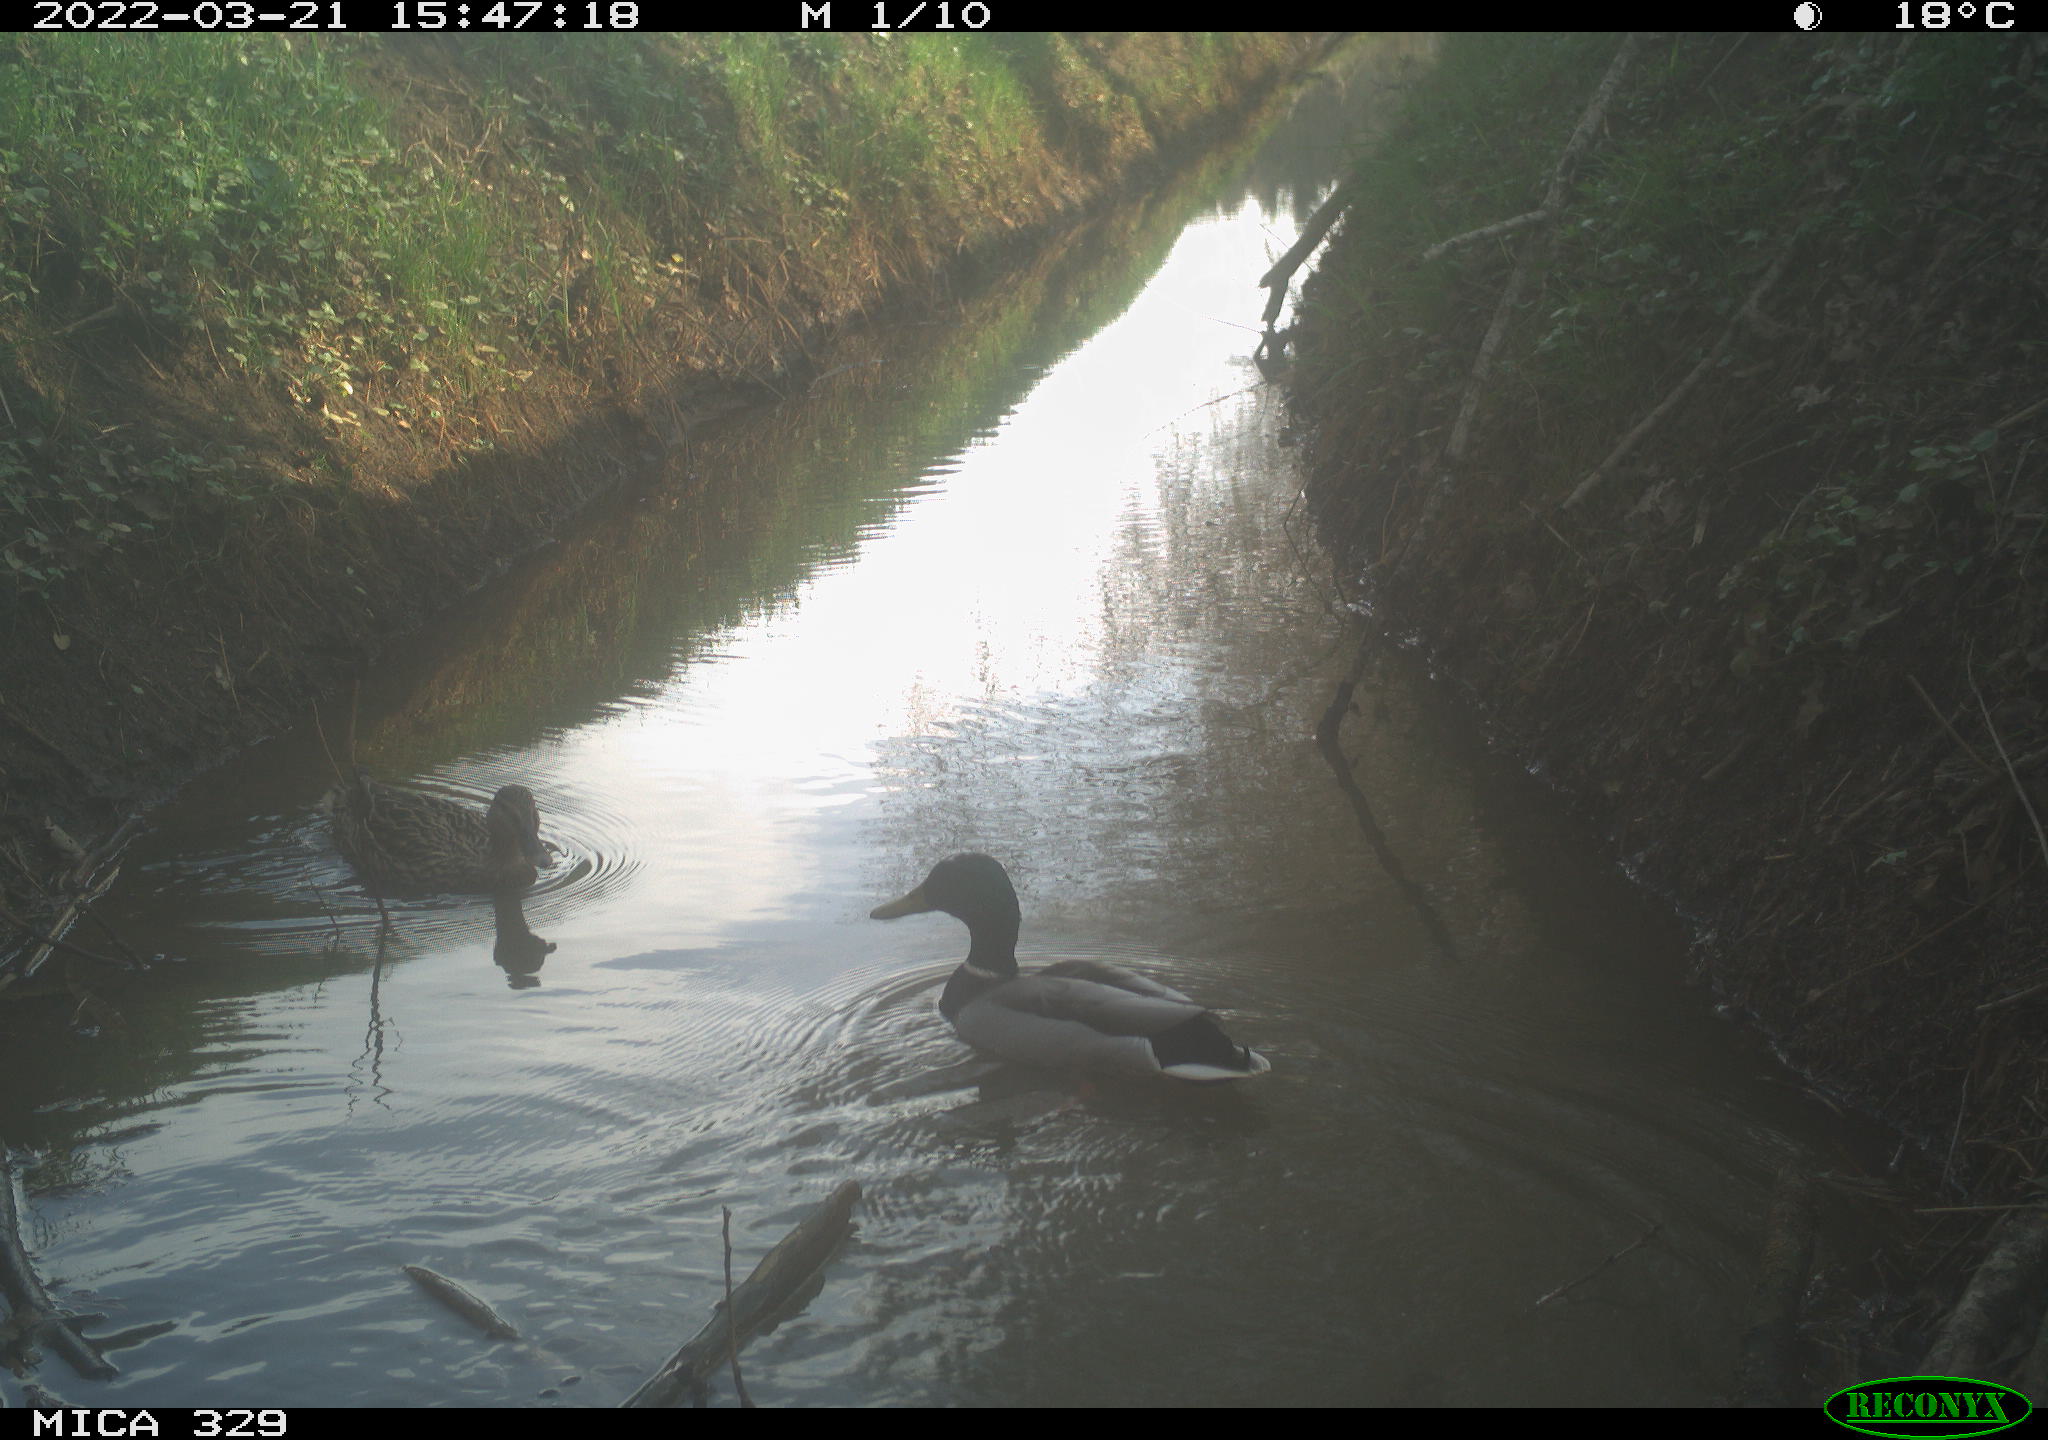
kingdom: Animalia
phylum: Chordata
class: Aves
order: Anseriformes
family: Anatidae
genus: Anas
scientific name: Anas platyrhynchos
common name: Mallard
